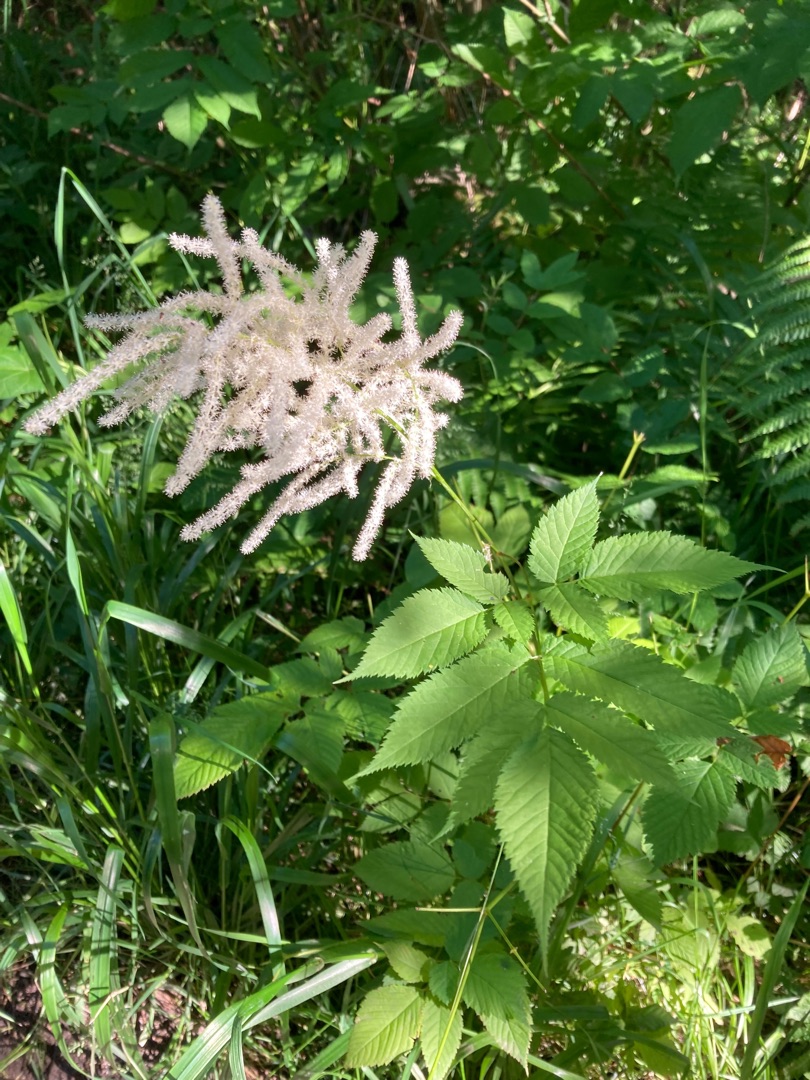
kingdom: Plantae
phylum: Tracheophyta
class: Magnoliopsida
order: Rosales
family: Rosaceae
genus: Aruncus
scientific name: Aruncus dioicus
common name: Fjerbusk
